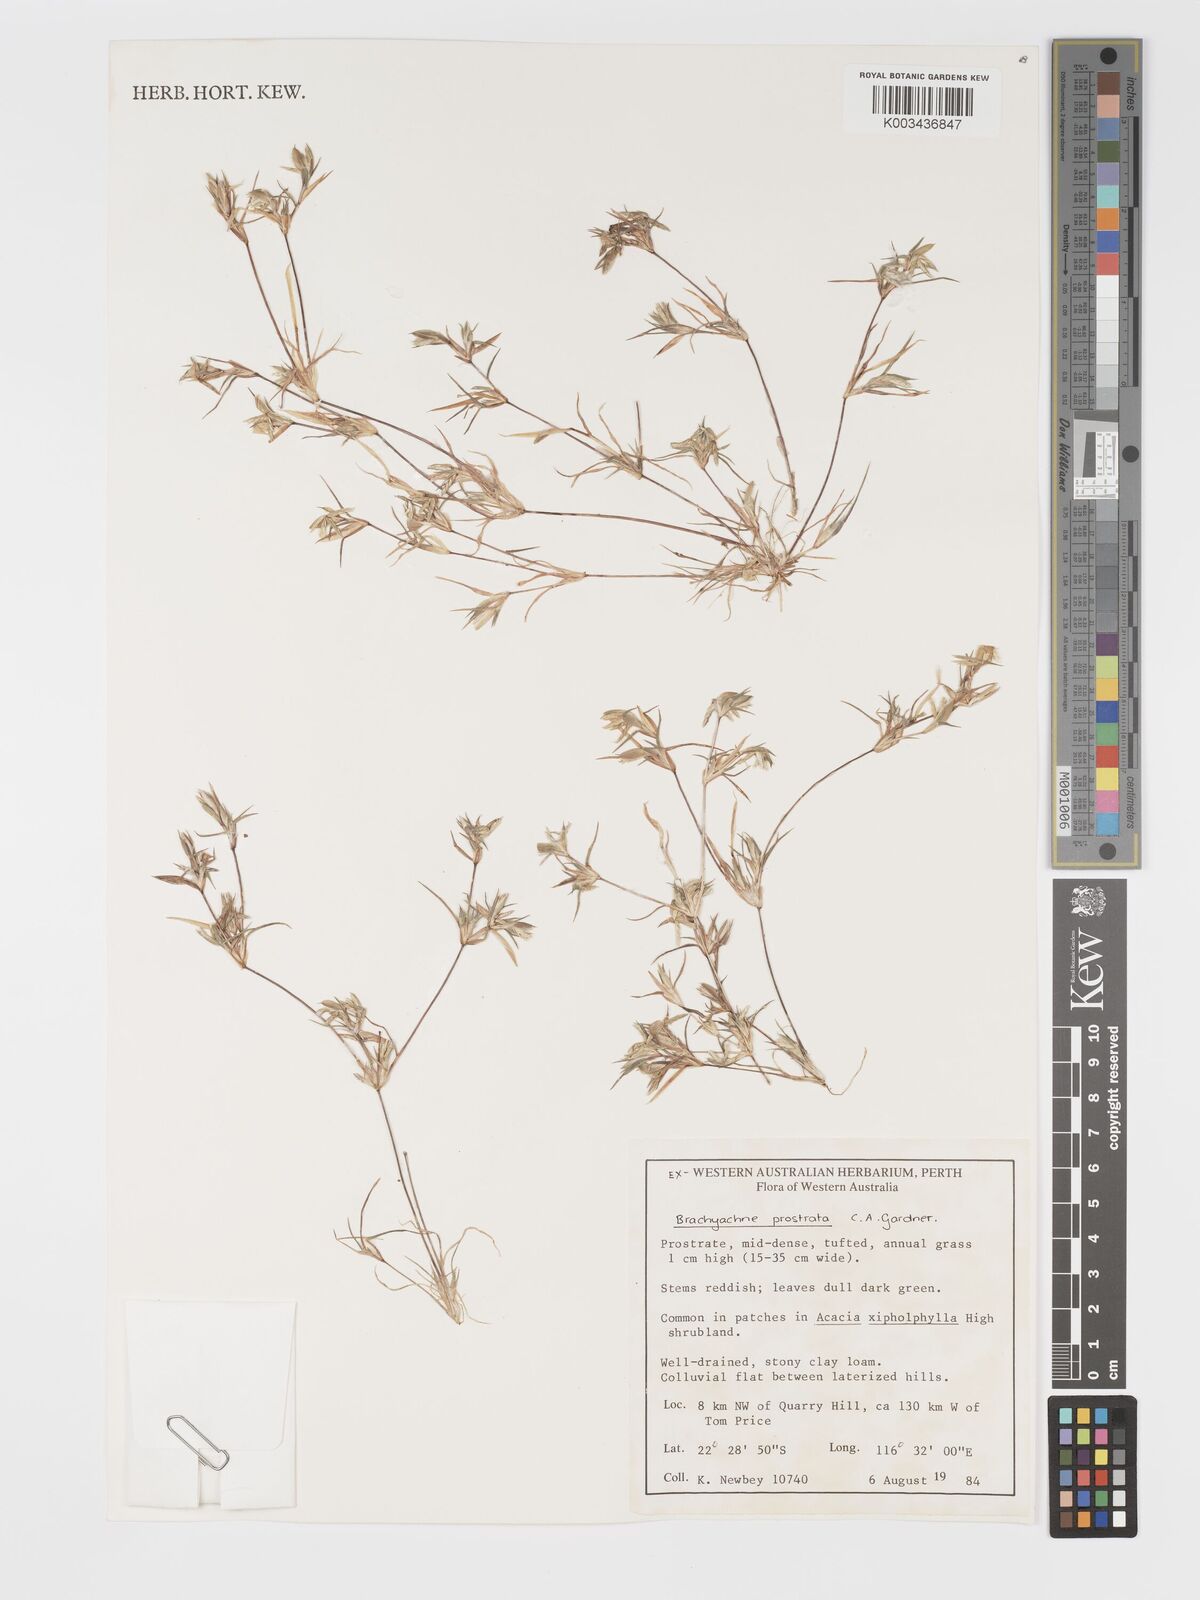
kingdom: Plantae
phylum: Tracheophyta
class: Liliopsida
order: Poales
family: Poaceae
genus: Cynodon
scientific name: Cynodon prostratus
